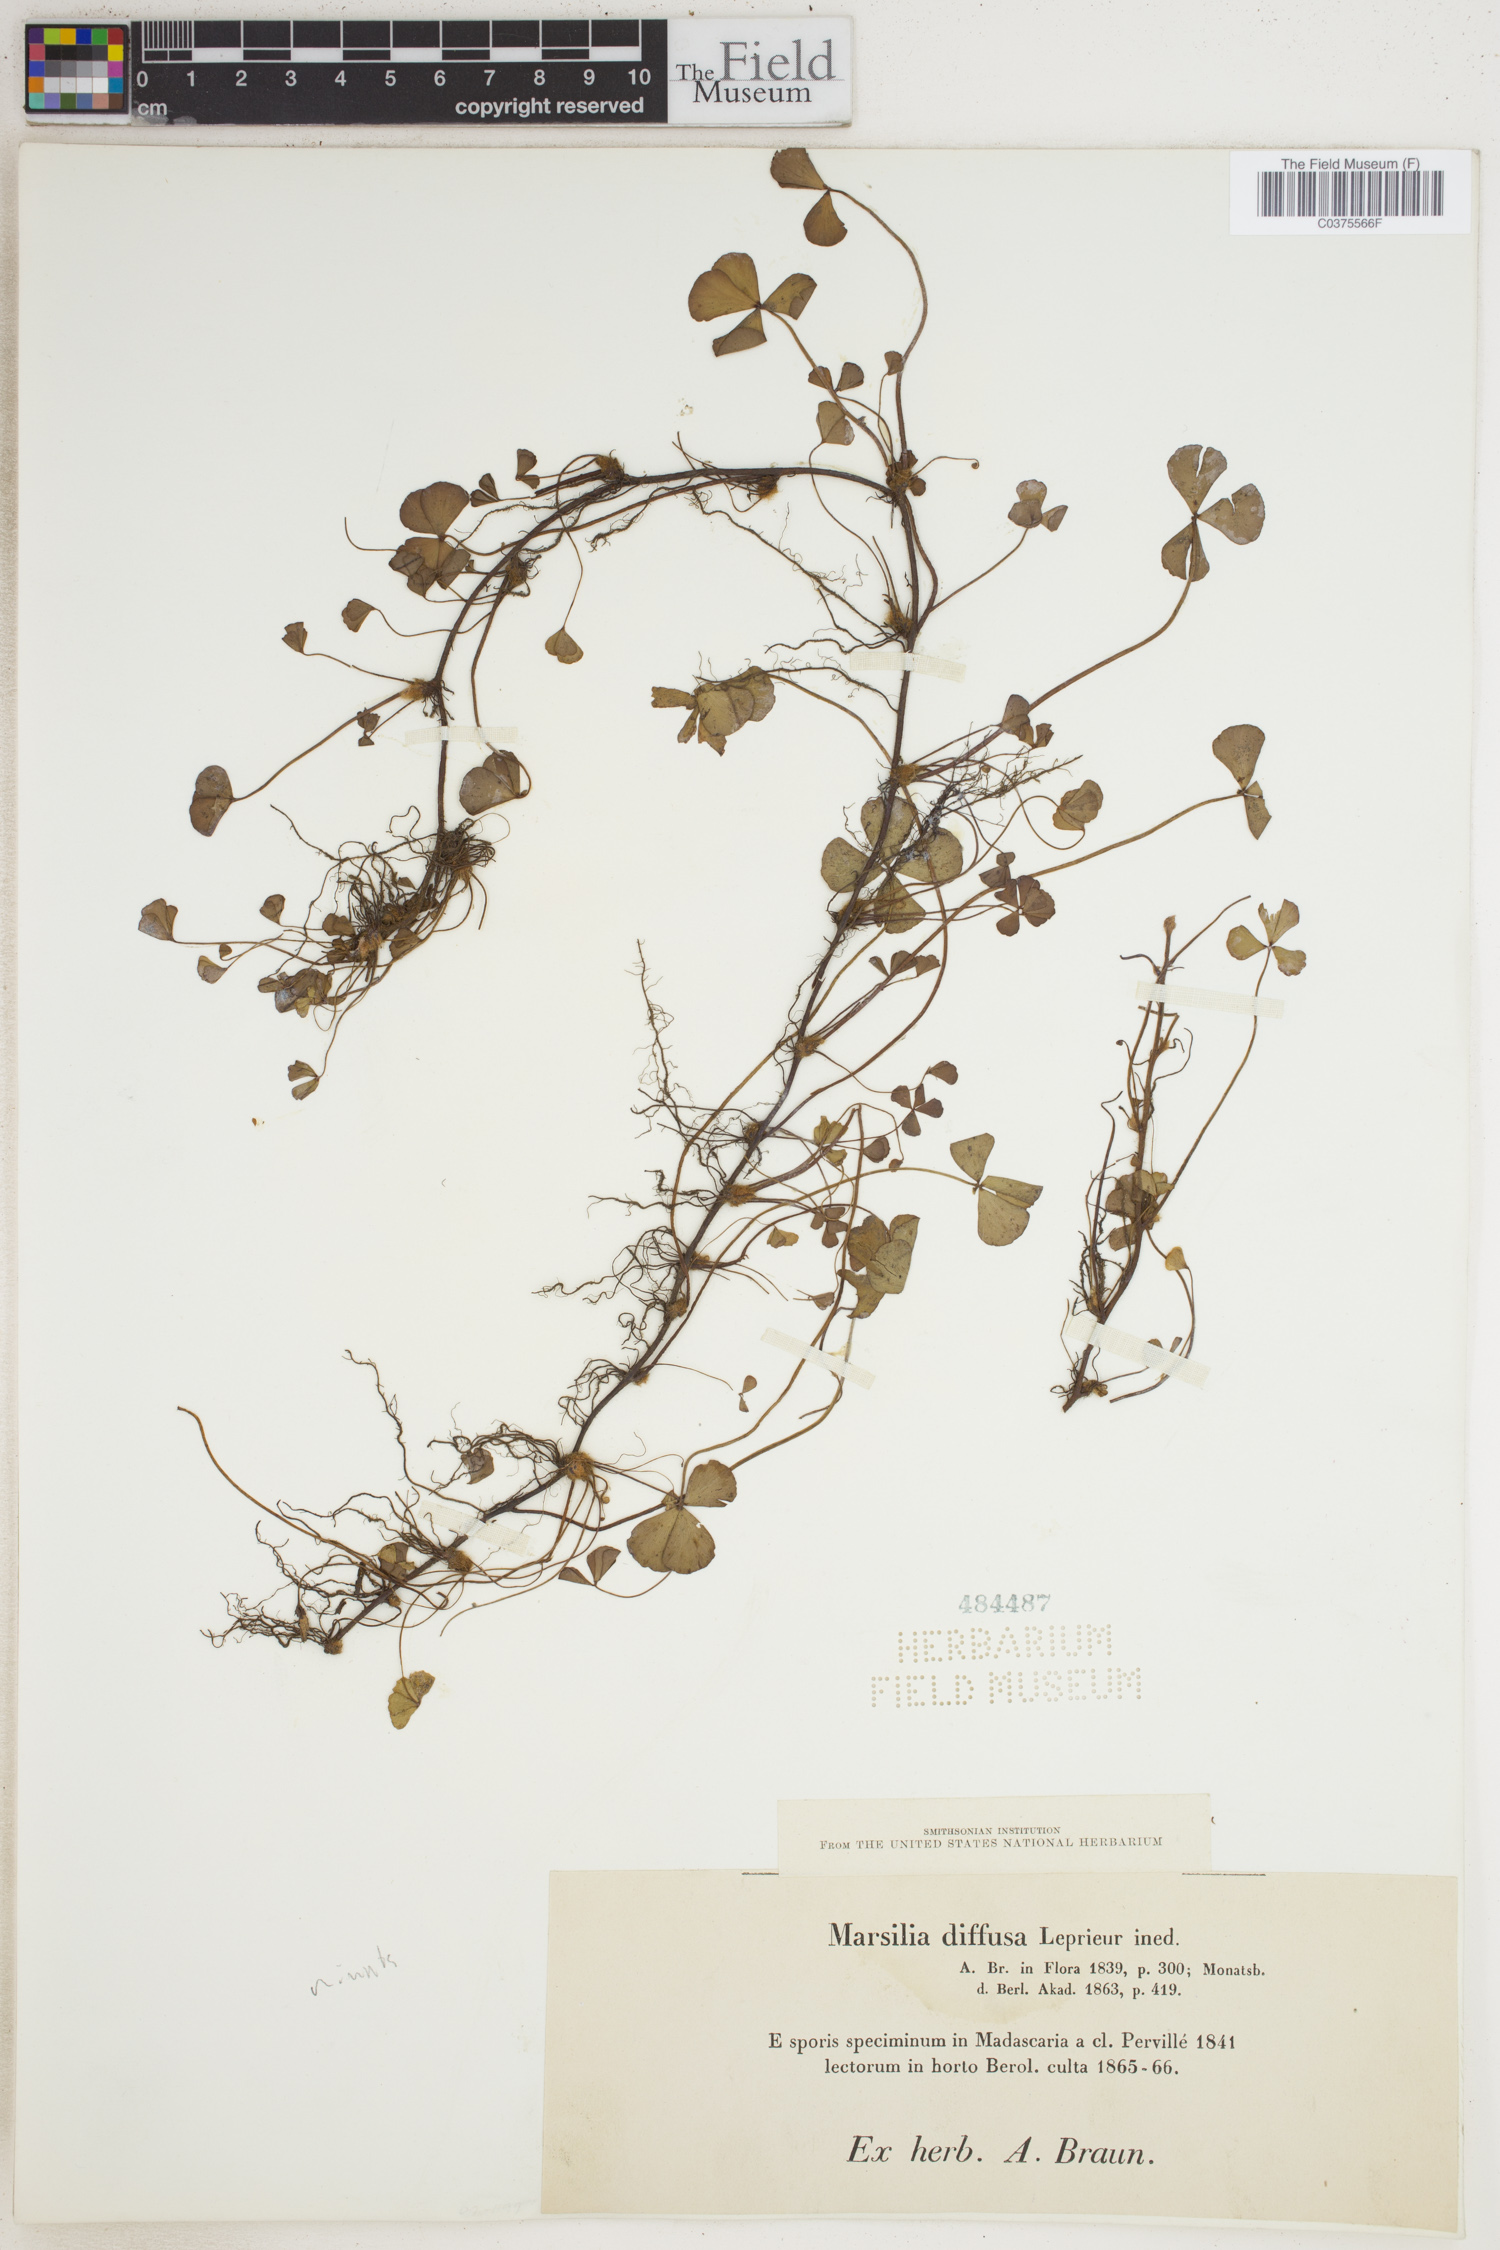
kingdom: Plantae
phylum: Tracheophyta
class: Polypodiopsida
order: Salviniales
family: Marsileaceae
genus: Marsilea
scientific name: Marsilea minuta
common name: Dwarf waterclover
